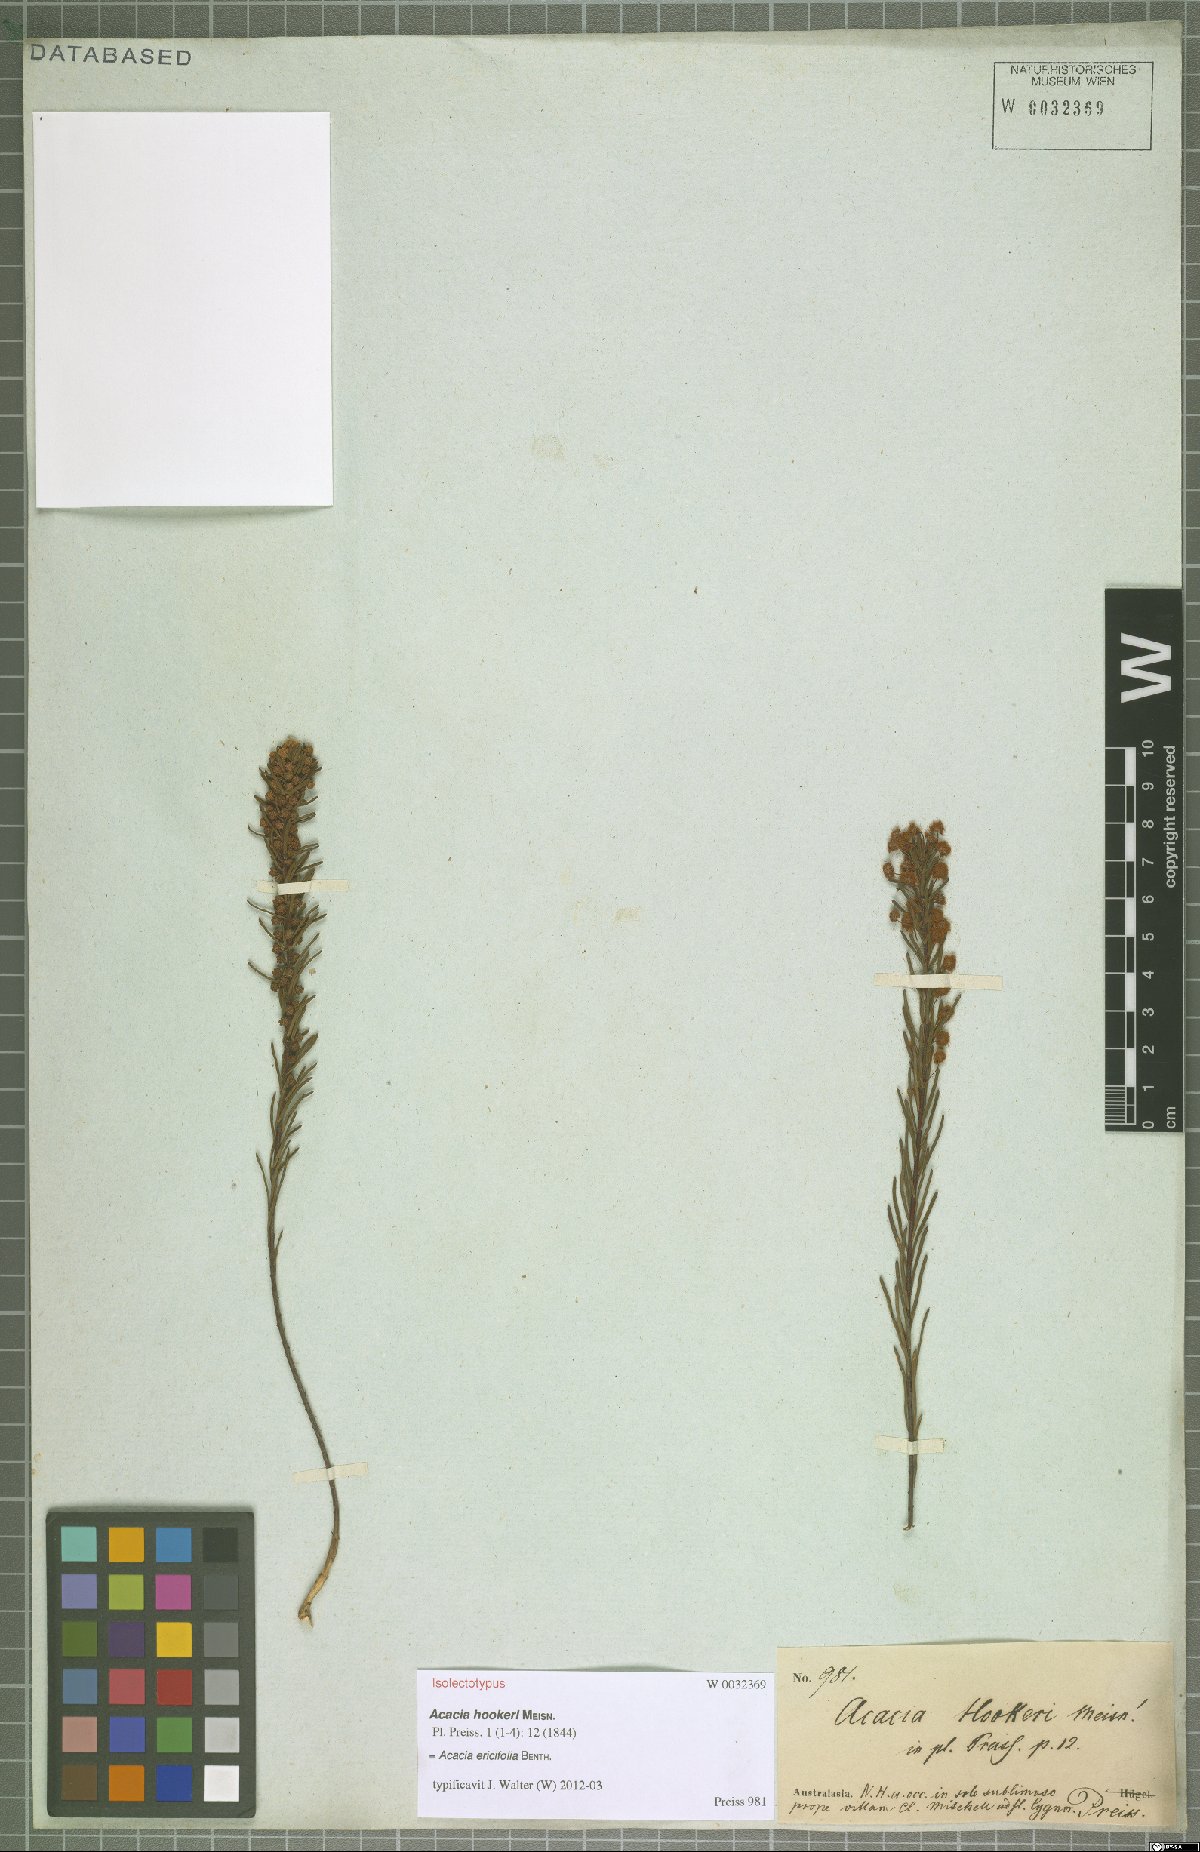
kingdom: Plantae
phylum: Tracheophyta
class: Magnoliopsida
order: Fabales
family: Fabaceae
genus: Acacia
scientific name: Acacia ericifolia
